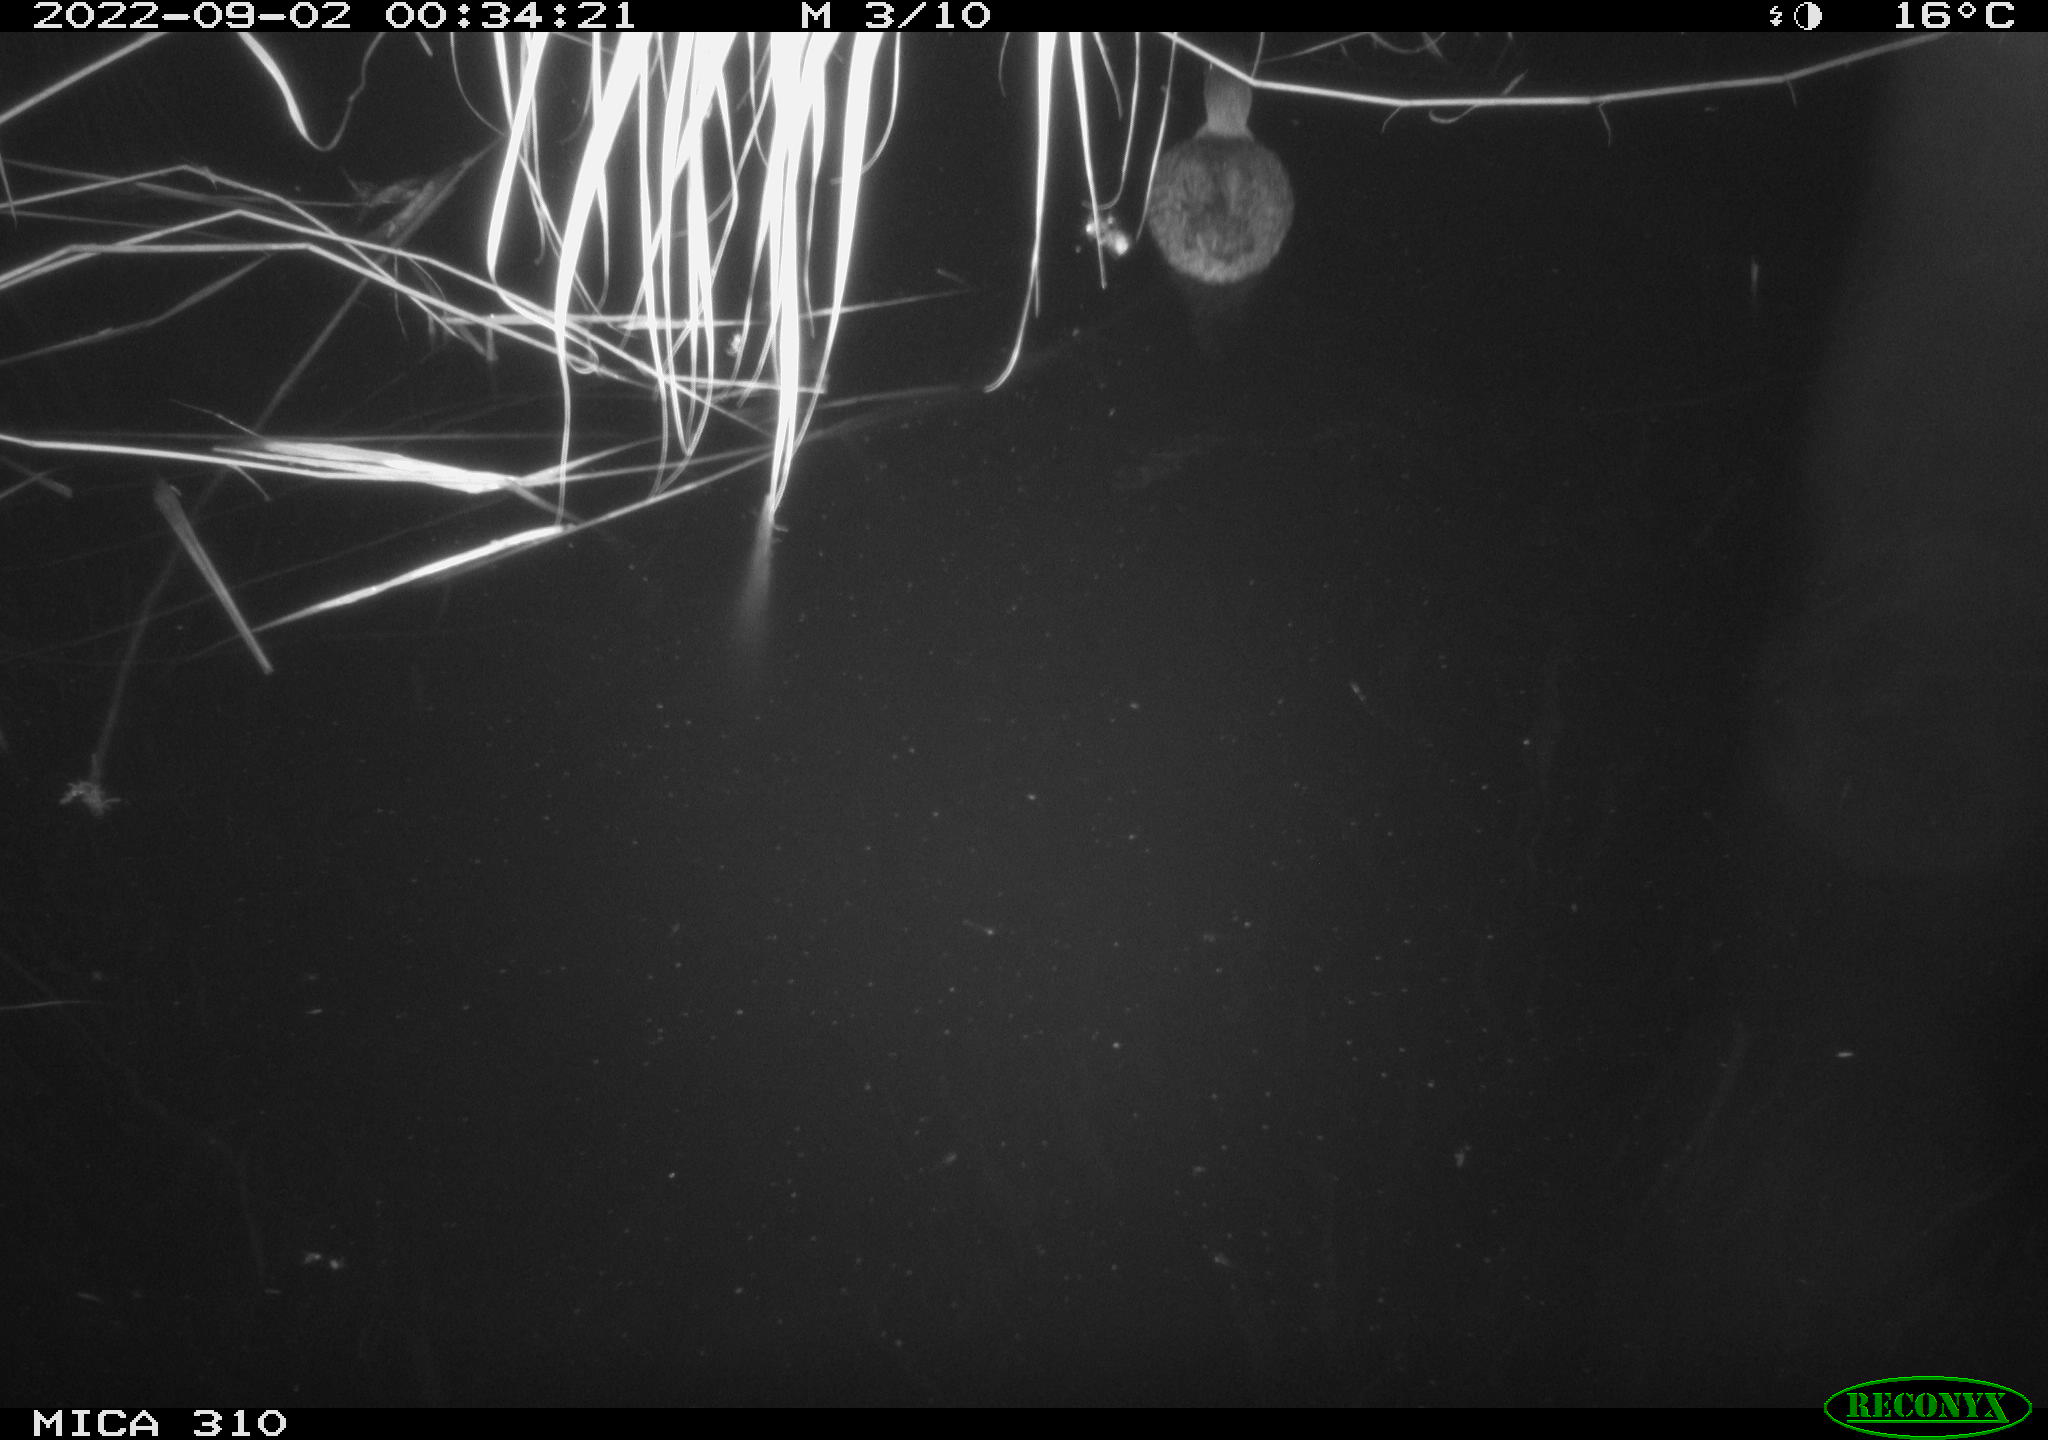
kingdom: Animalia
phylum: Chordata
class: Aves
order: Anseriformes
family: Anatidae
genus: Anas
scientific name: Anas platyrhynchos
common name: Mallard
